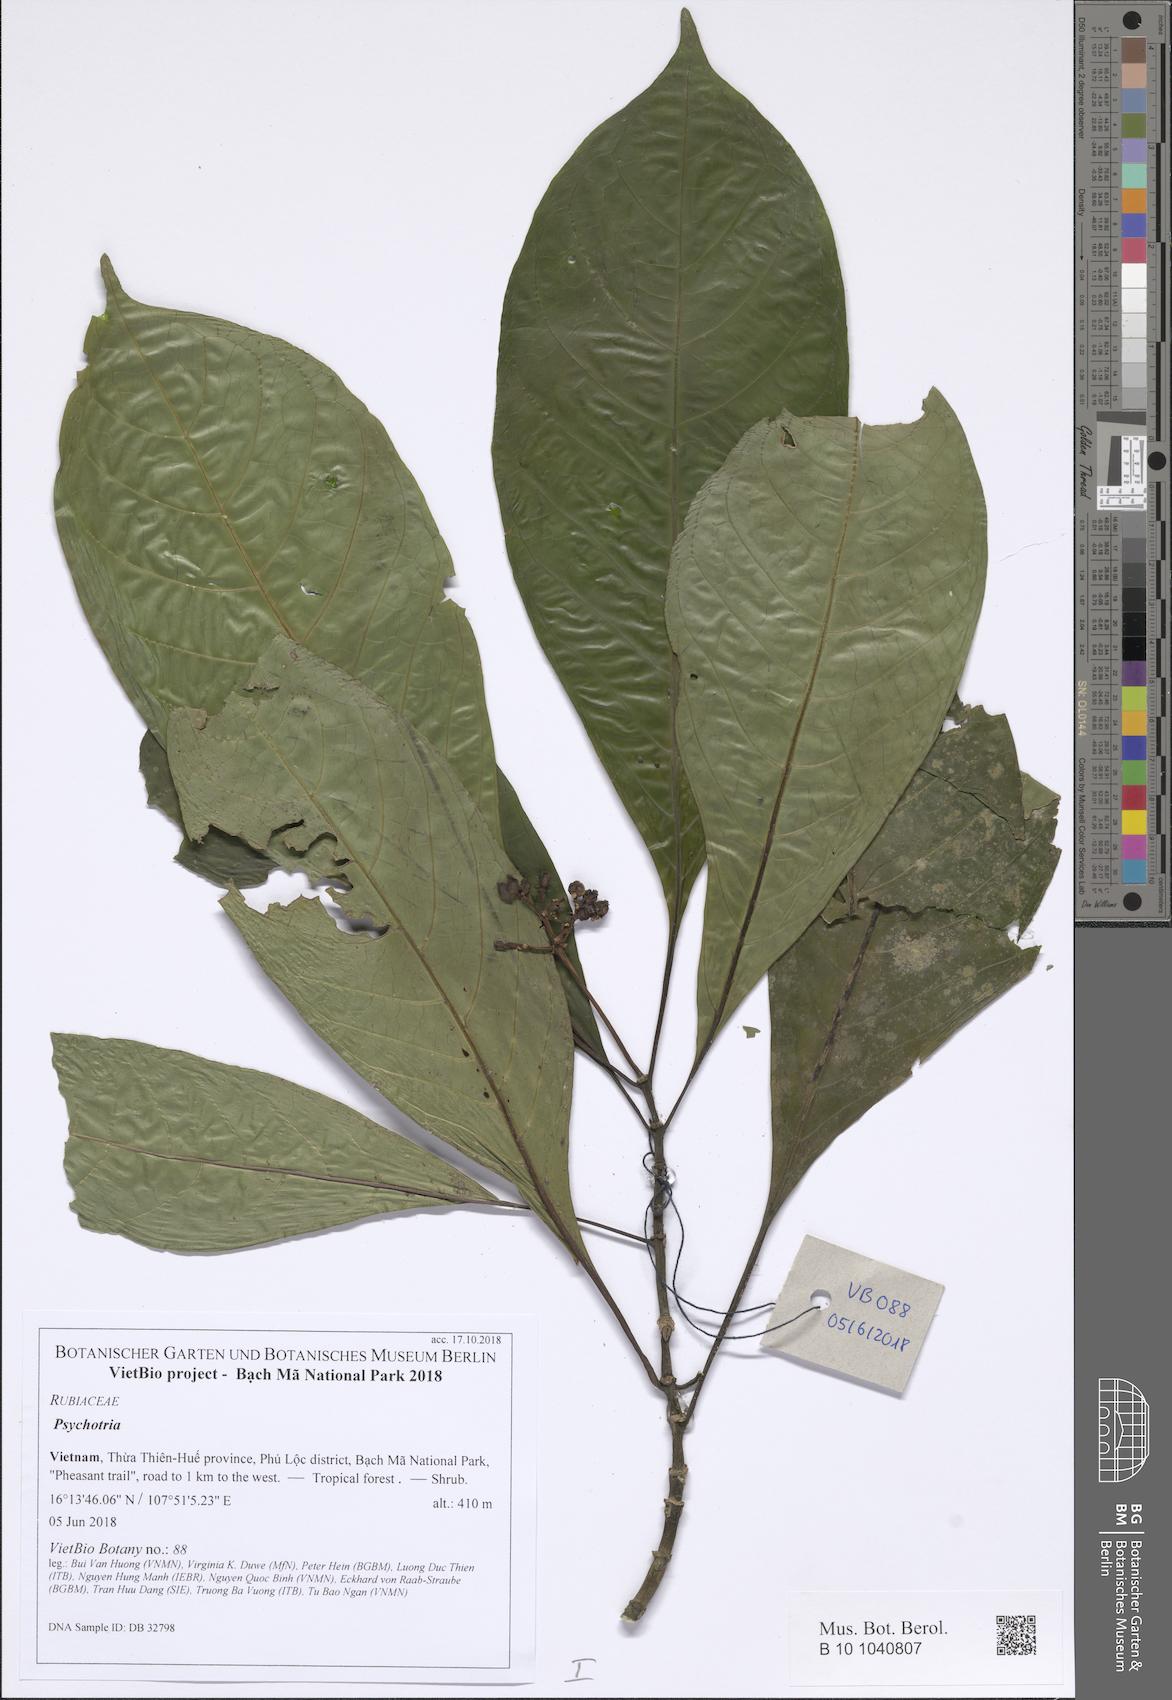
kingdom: Plantae
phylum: Tracheophyta
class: Magnoliopsida
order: Gentianales
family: Rubiaceae
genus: Eumachia
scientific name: Eumachia montana
